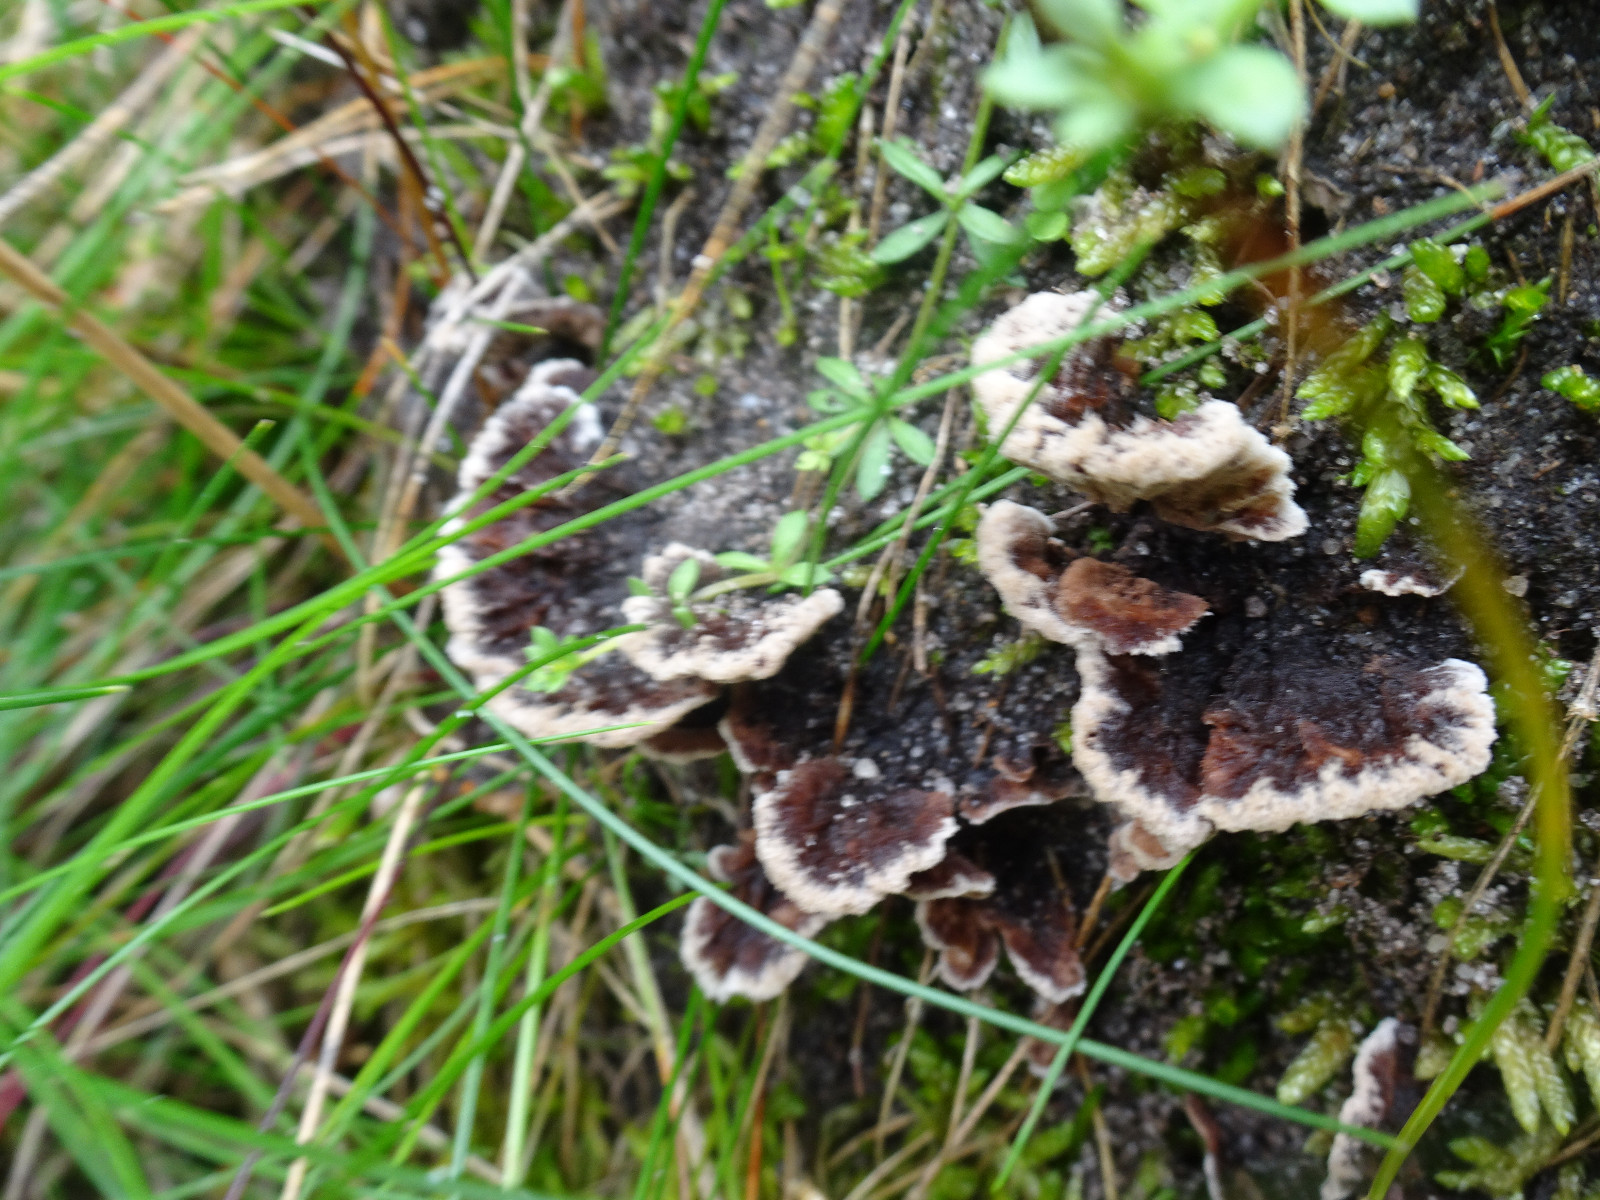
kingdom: Fungi
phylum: Basidiomycota
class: Agaricomycetes
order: Thelephorales
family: Thelephoraceae
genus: Thelephora
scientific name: Thelephora terrestris
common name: fliget frynsesvamp
